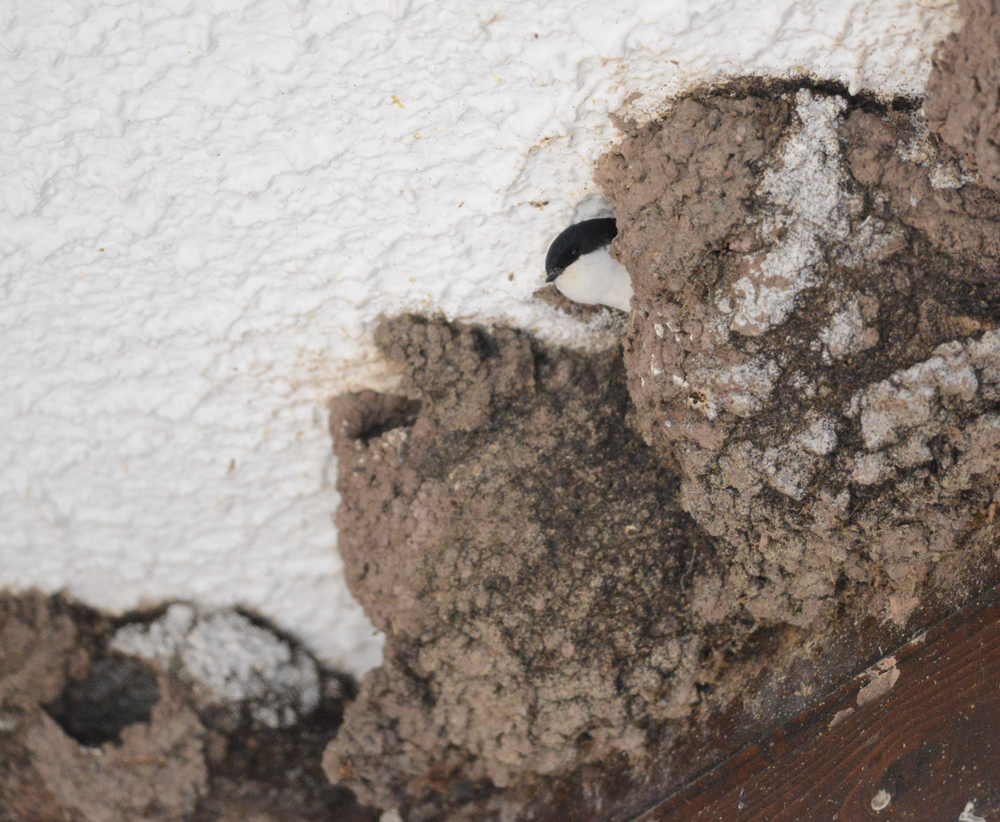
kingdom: Animalia
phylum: Chordata
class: Aves
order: Passeriformes
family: Hirundinidae
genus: Delichon
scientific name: Delichon urbicum
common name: Common house martin
